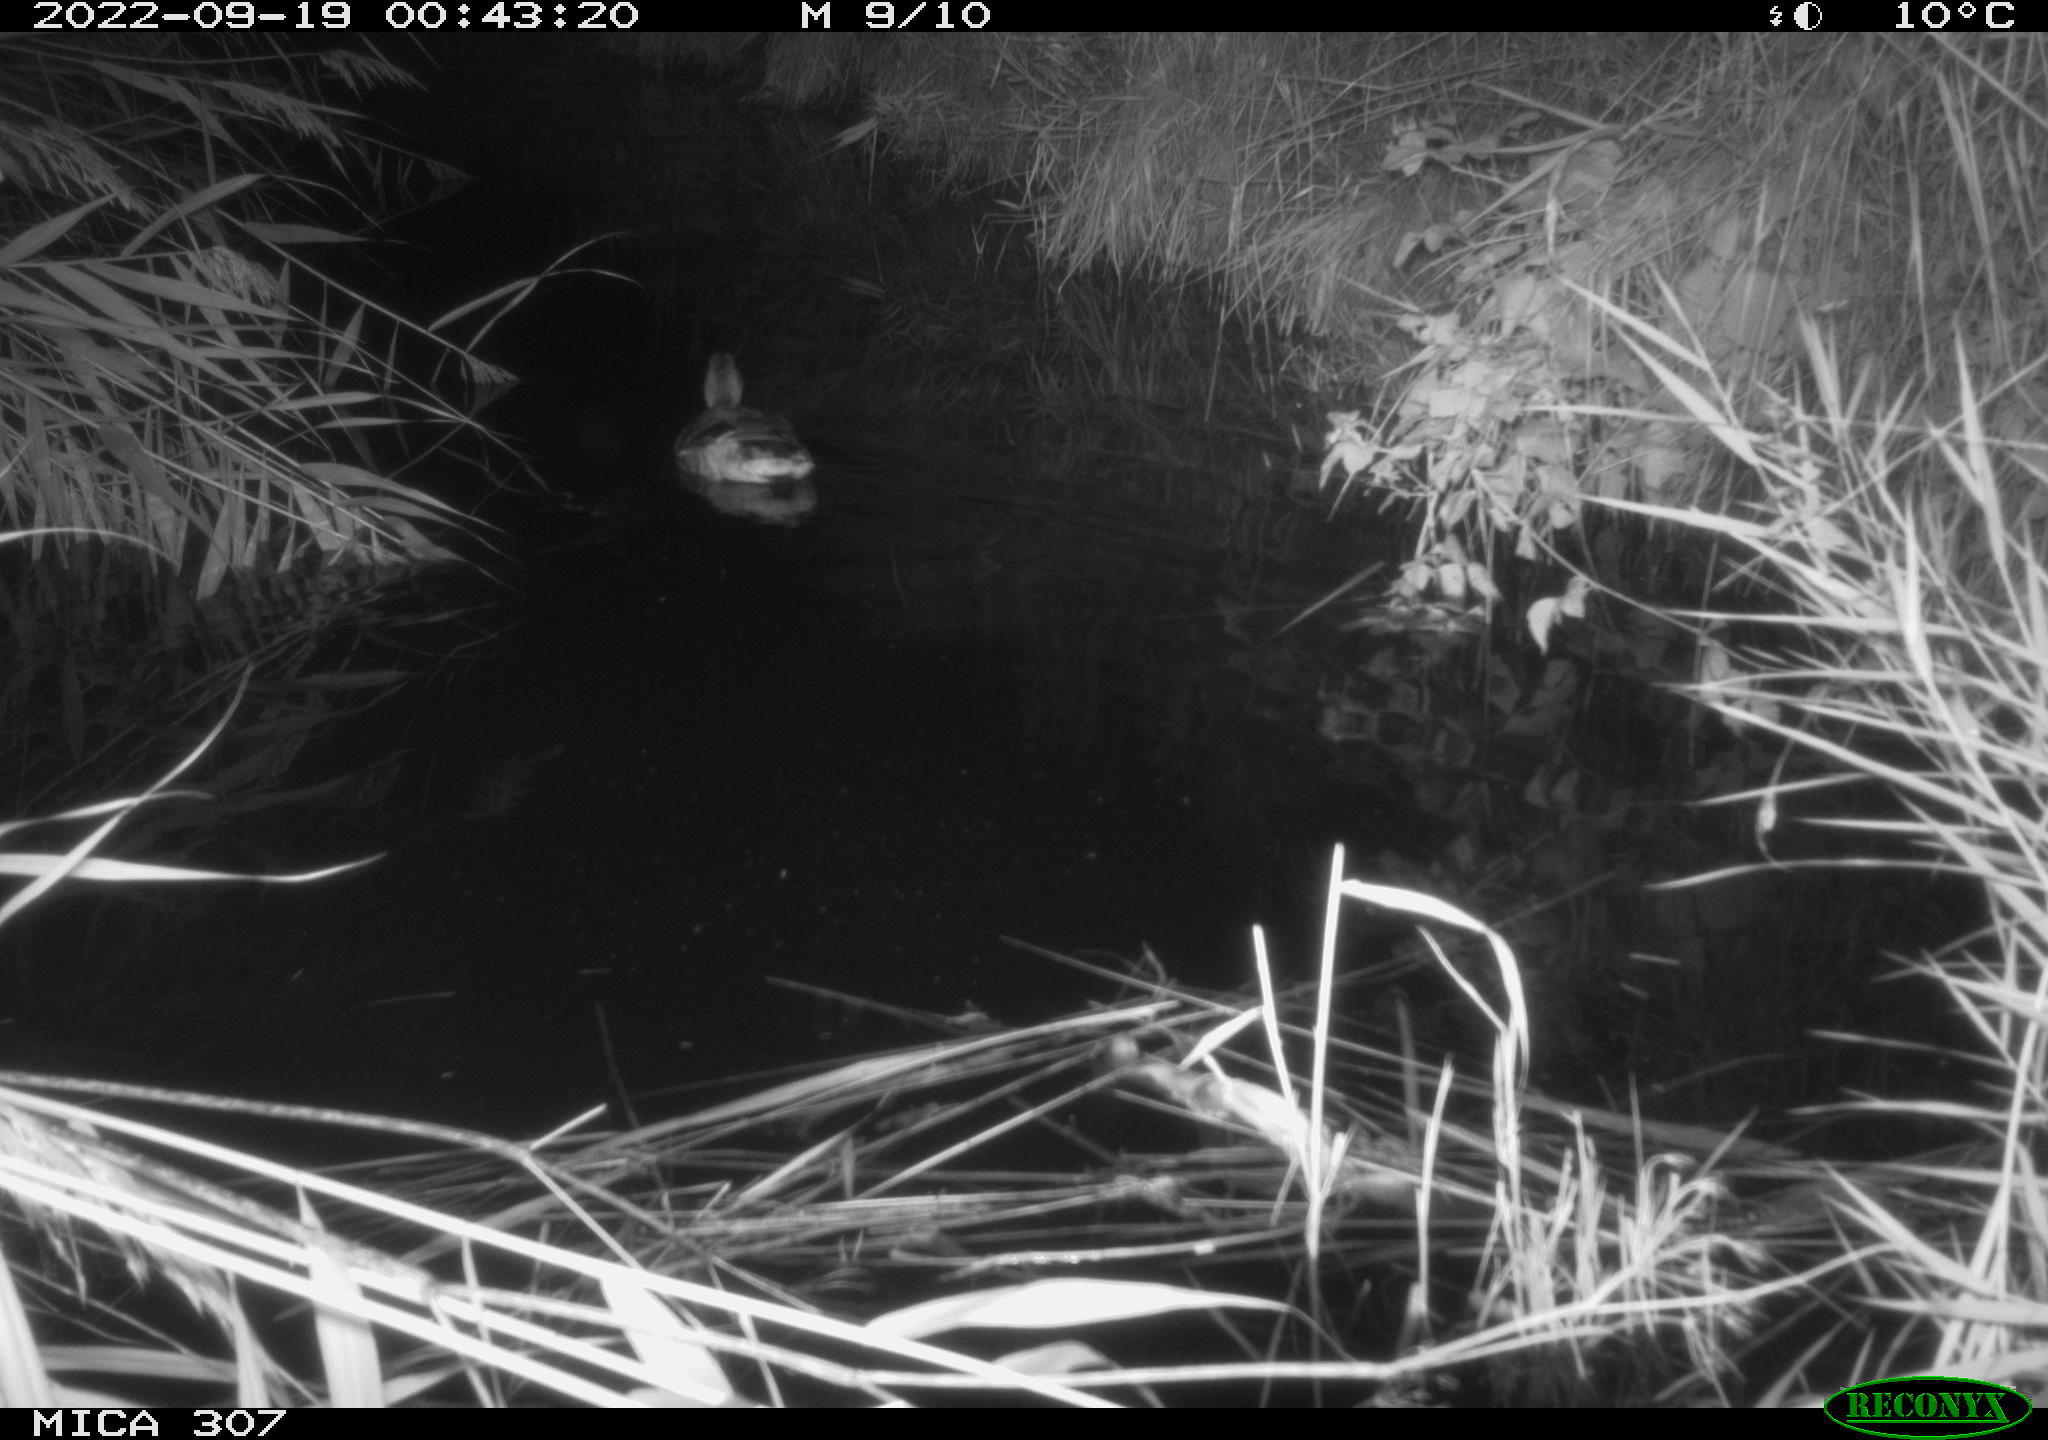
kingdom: Animalia
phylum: Chordata
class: Aves
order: Anseriformes
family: Anatidae
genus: Anas
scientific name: Anas
